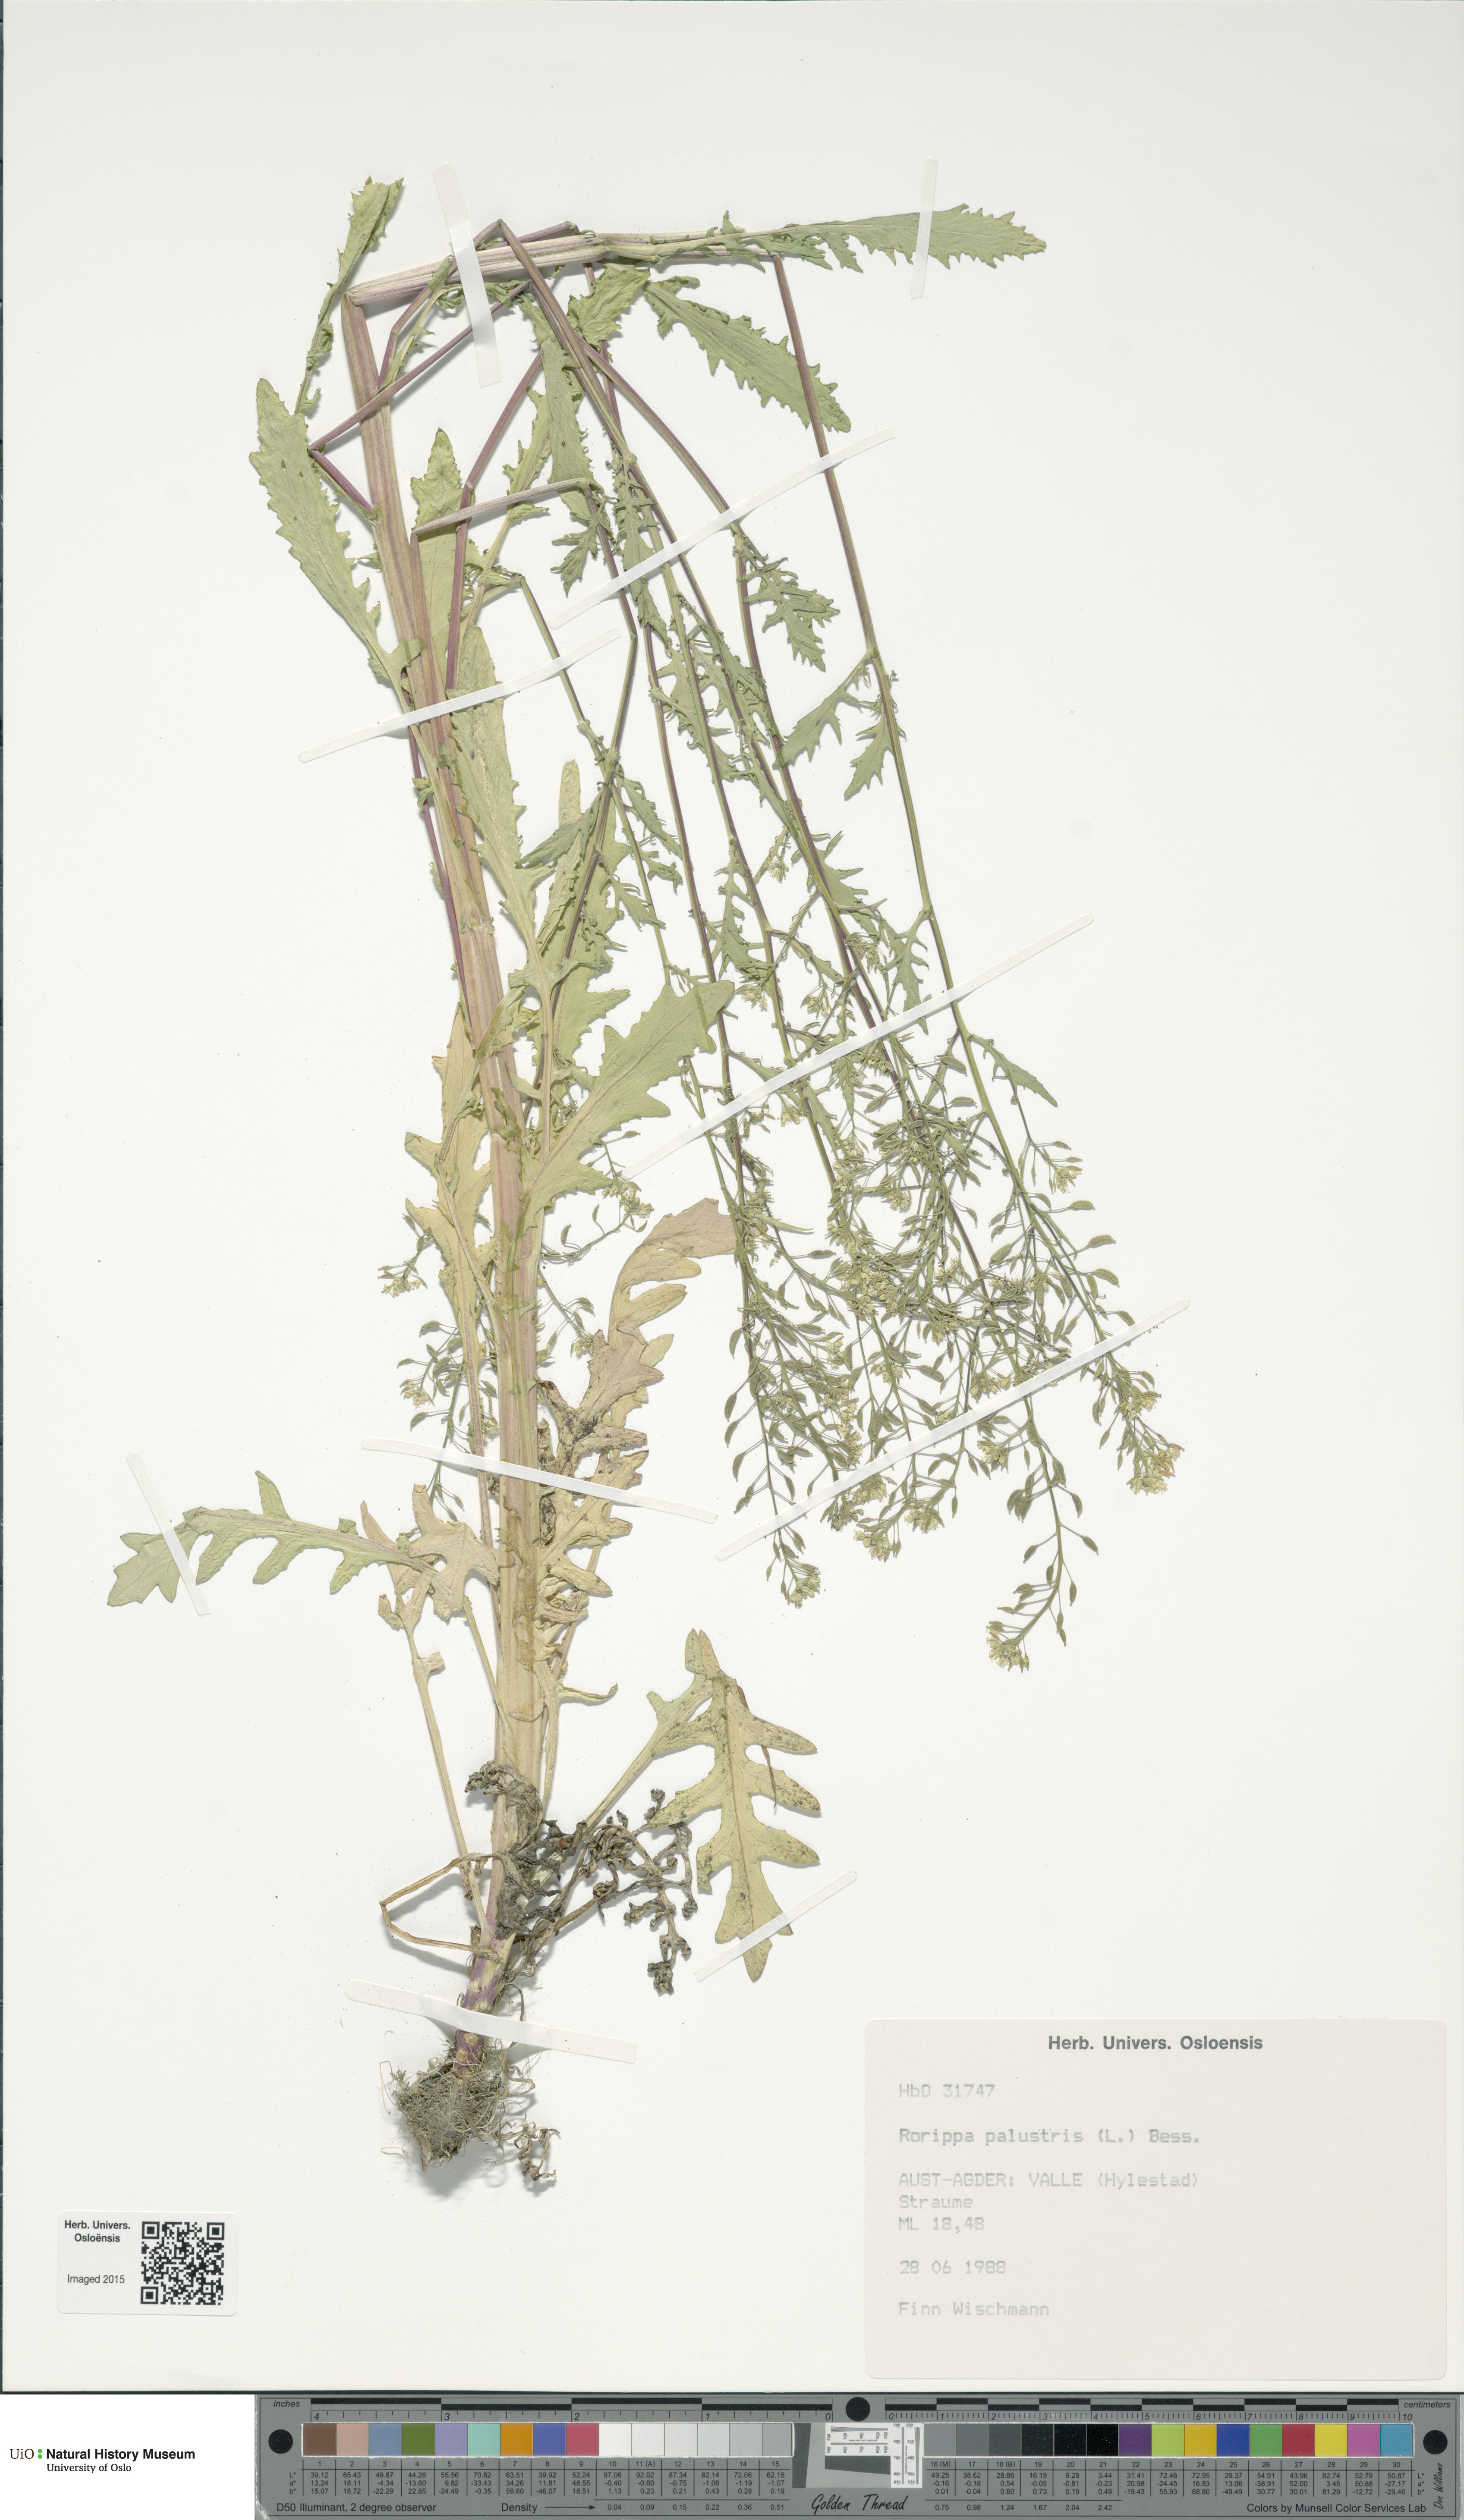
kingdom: Plantae
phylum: Tracheophyta
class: Magnoliopsida
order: Brassicales
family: Brassicaceae
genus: Rorippa
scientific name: Rorippa palustris
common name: Marsh yellow-cress
